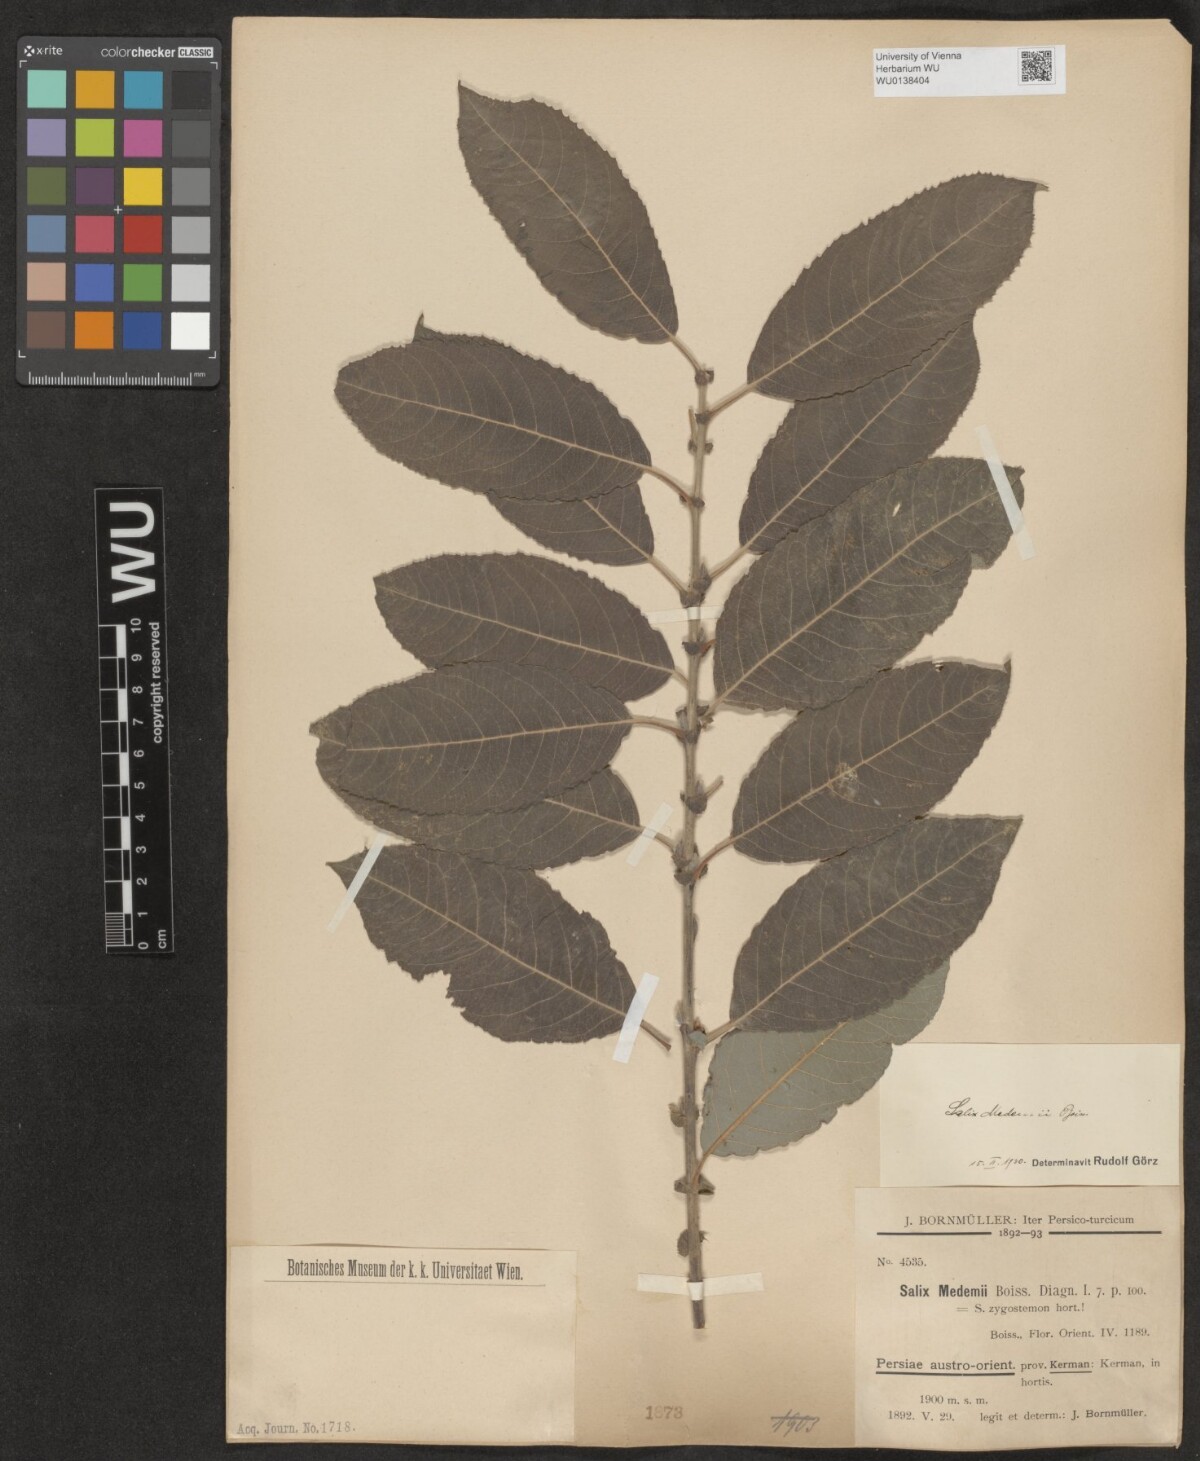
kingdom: Plantae
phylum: Tracheophyta
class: Magnoliopsida
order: Malpighiales
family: Salicaceae
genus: Salix
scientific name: Salix aegyptiaca
